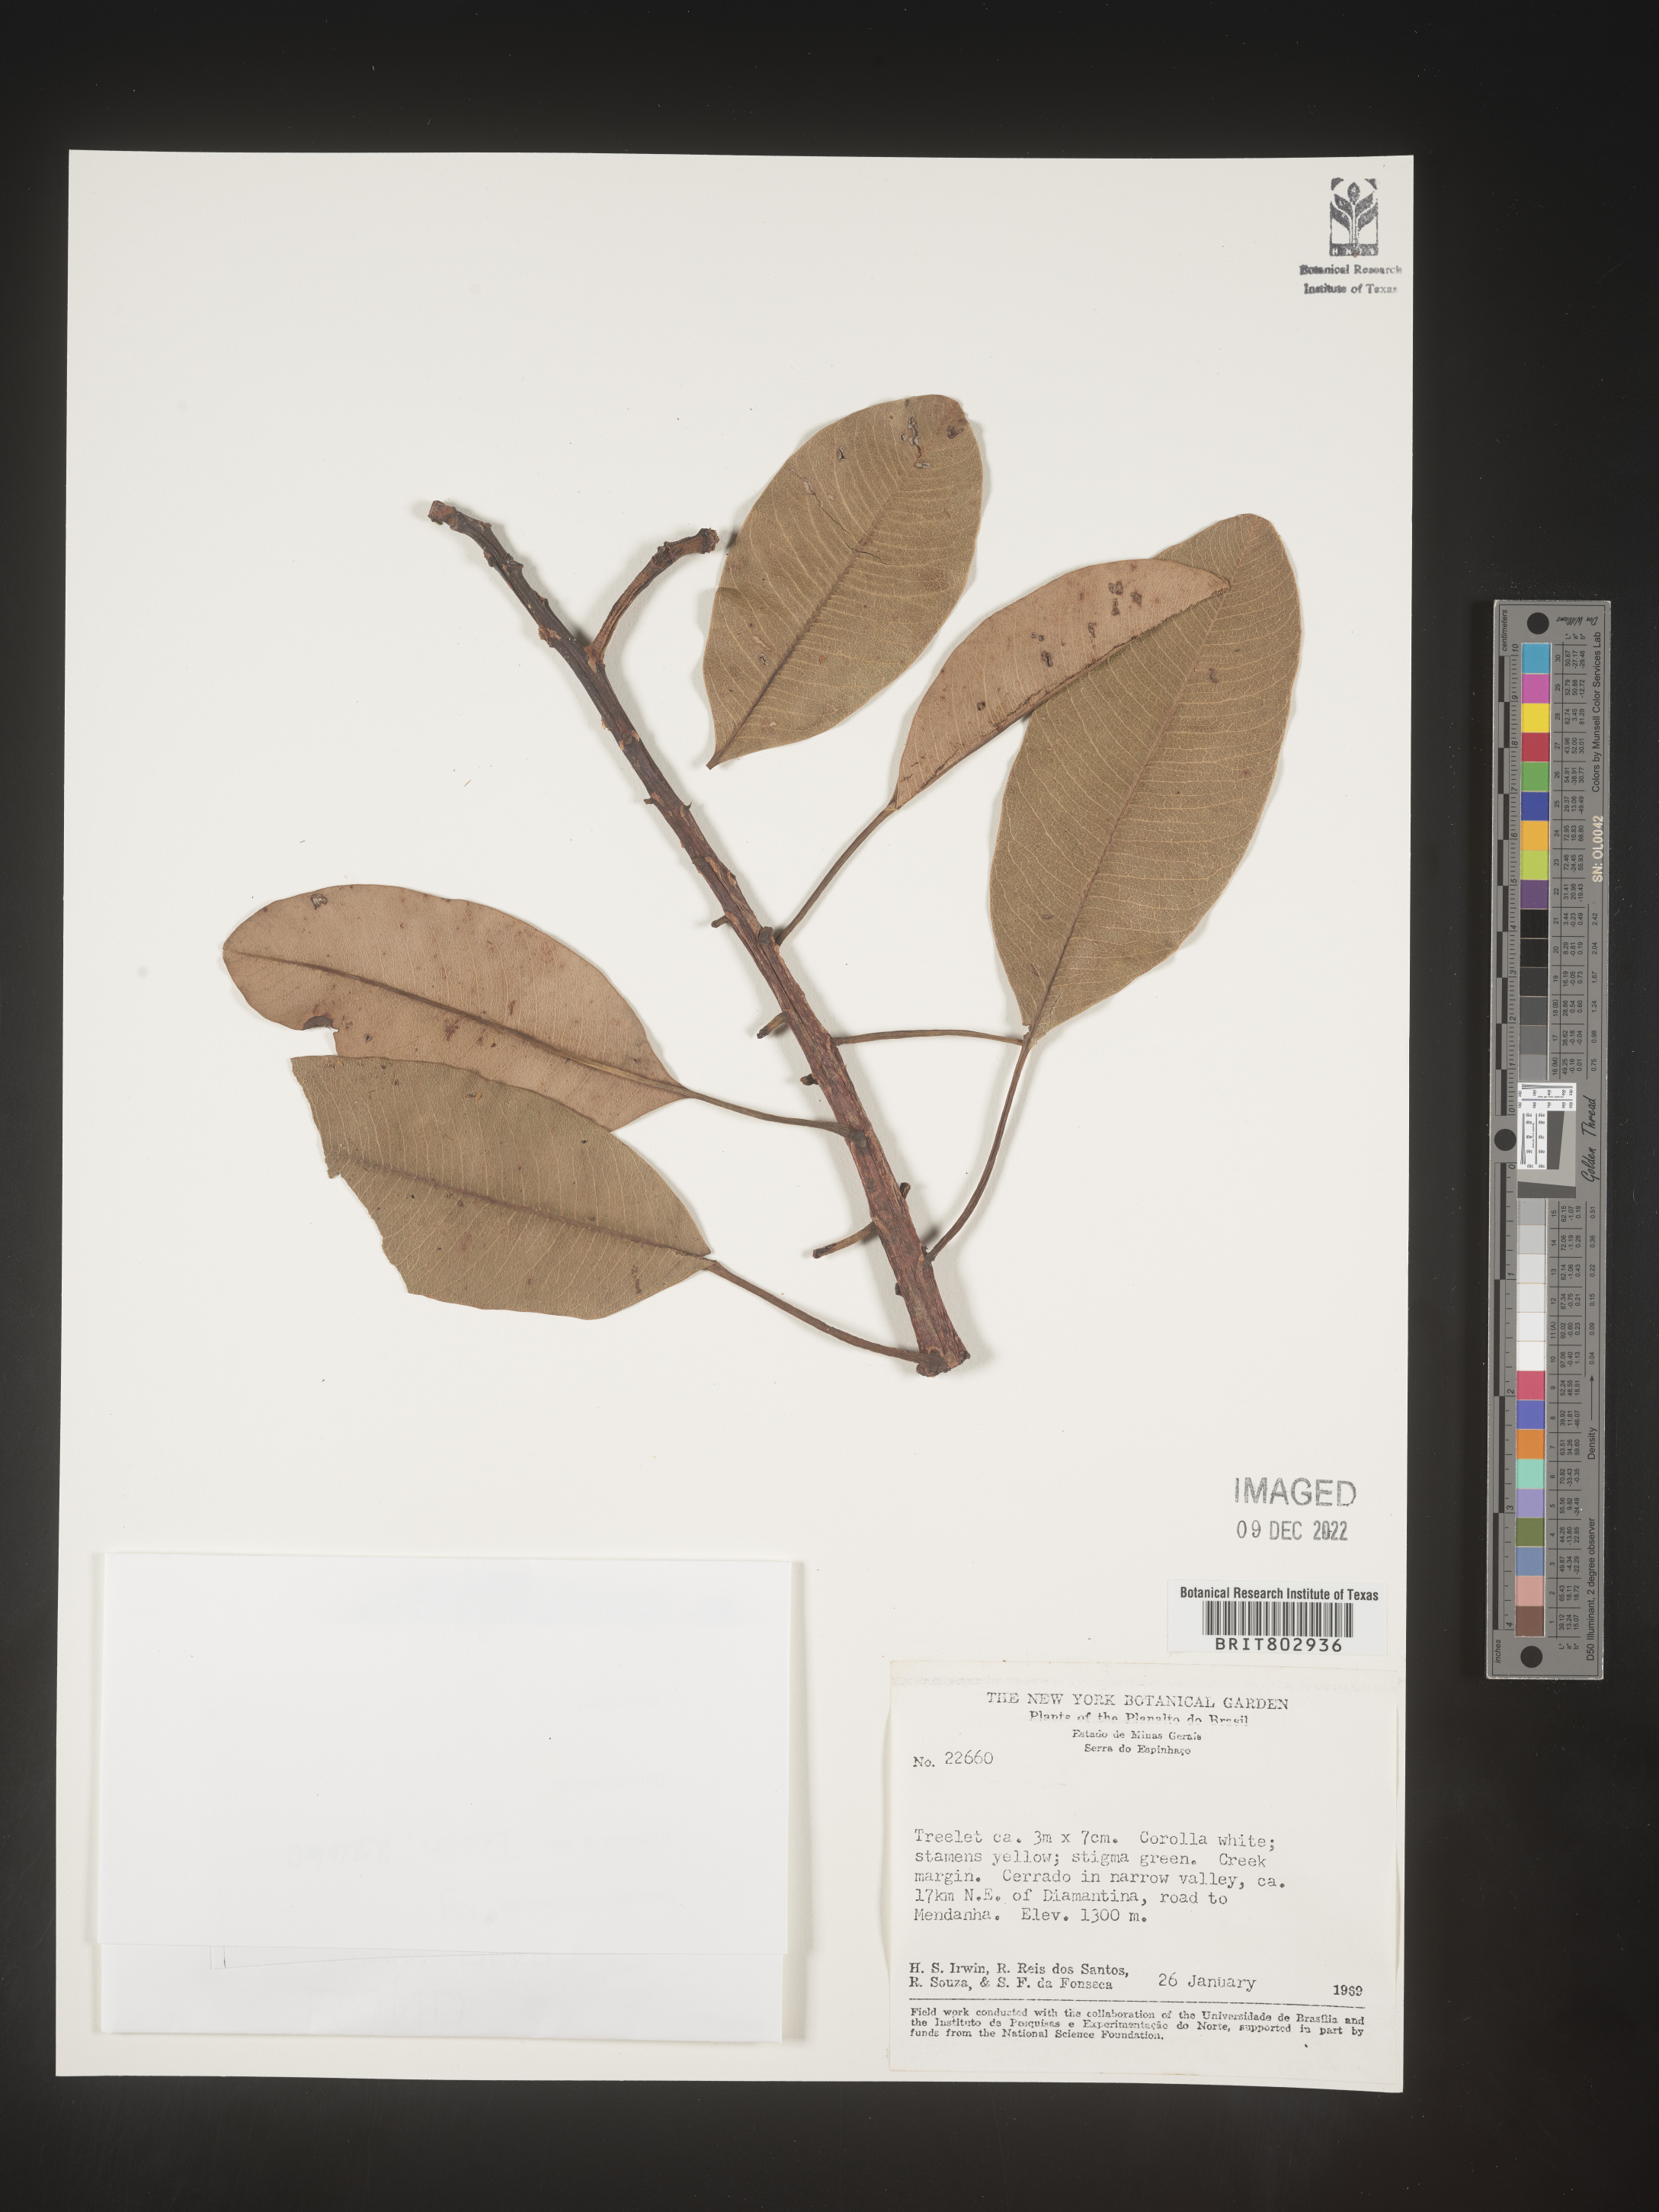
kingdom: Plantae
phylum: Tracheophyta
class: Magnoliopsida
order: Malpighiales
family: Calophyllaceae
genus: Kielmeyera
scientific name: Kielmeyera
